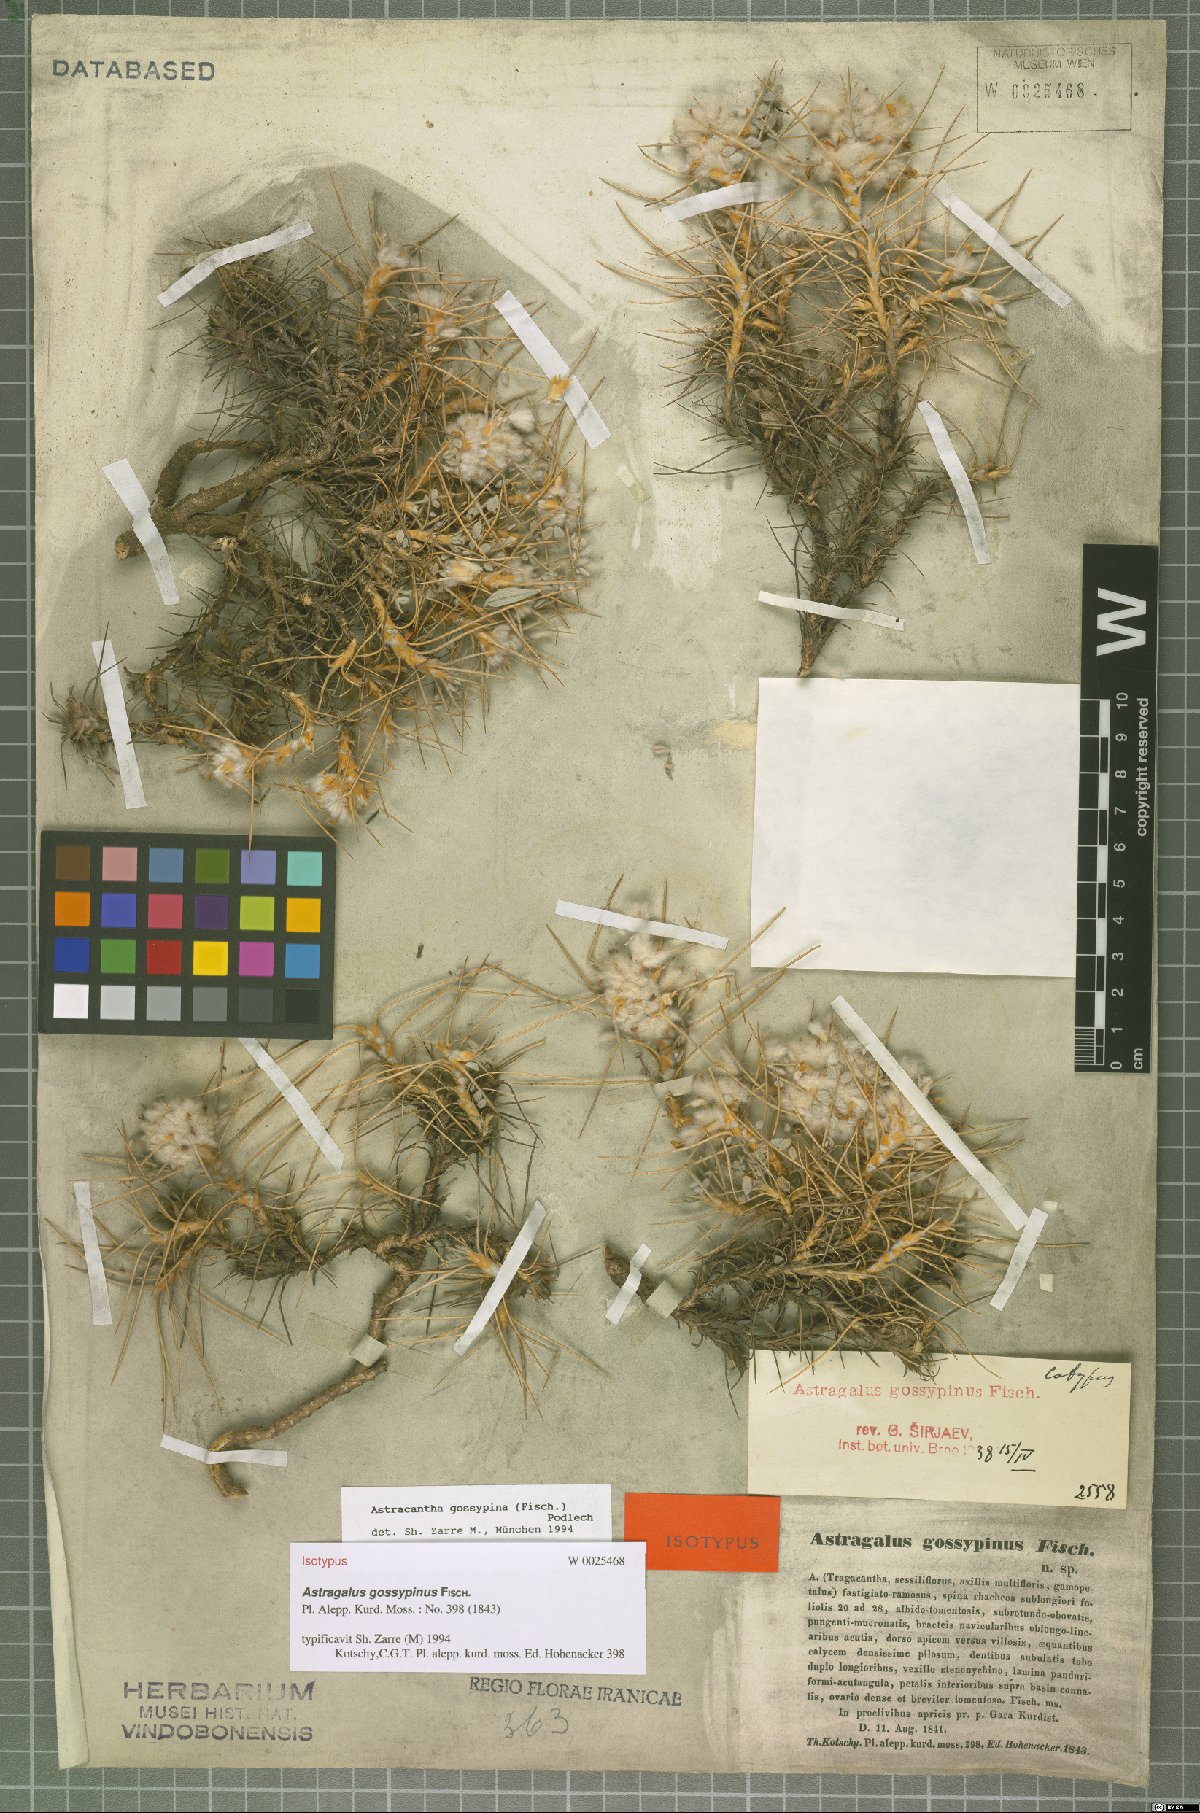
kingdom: Plantae
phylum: Tracheophyta
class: Magnoliopsida
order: Fabales
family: Fabaceae
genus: Astragalus
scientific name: Astragalus gossypinus
